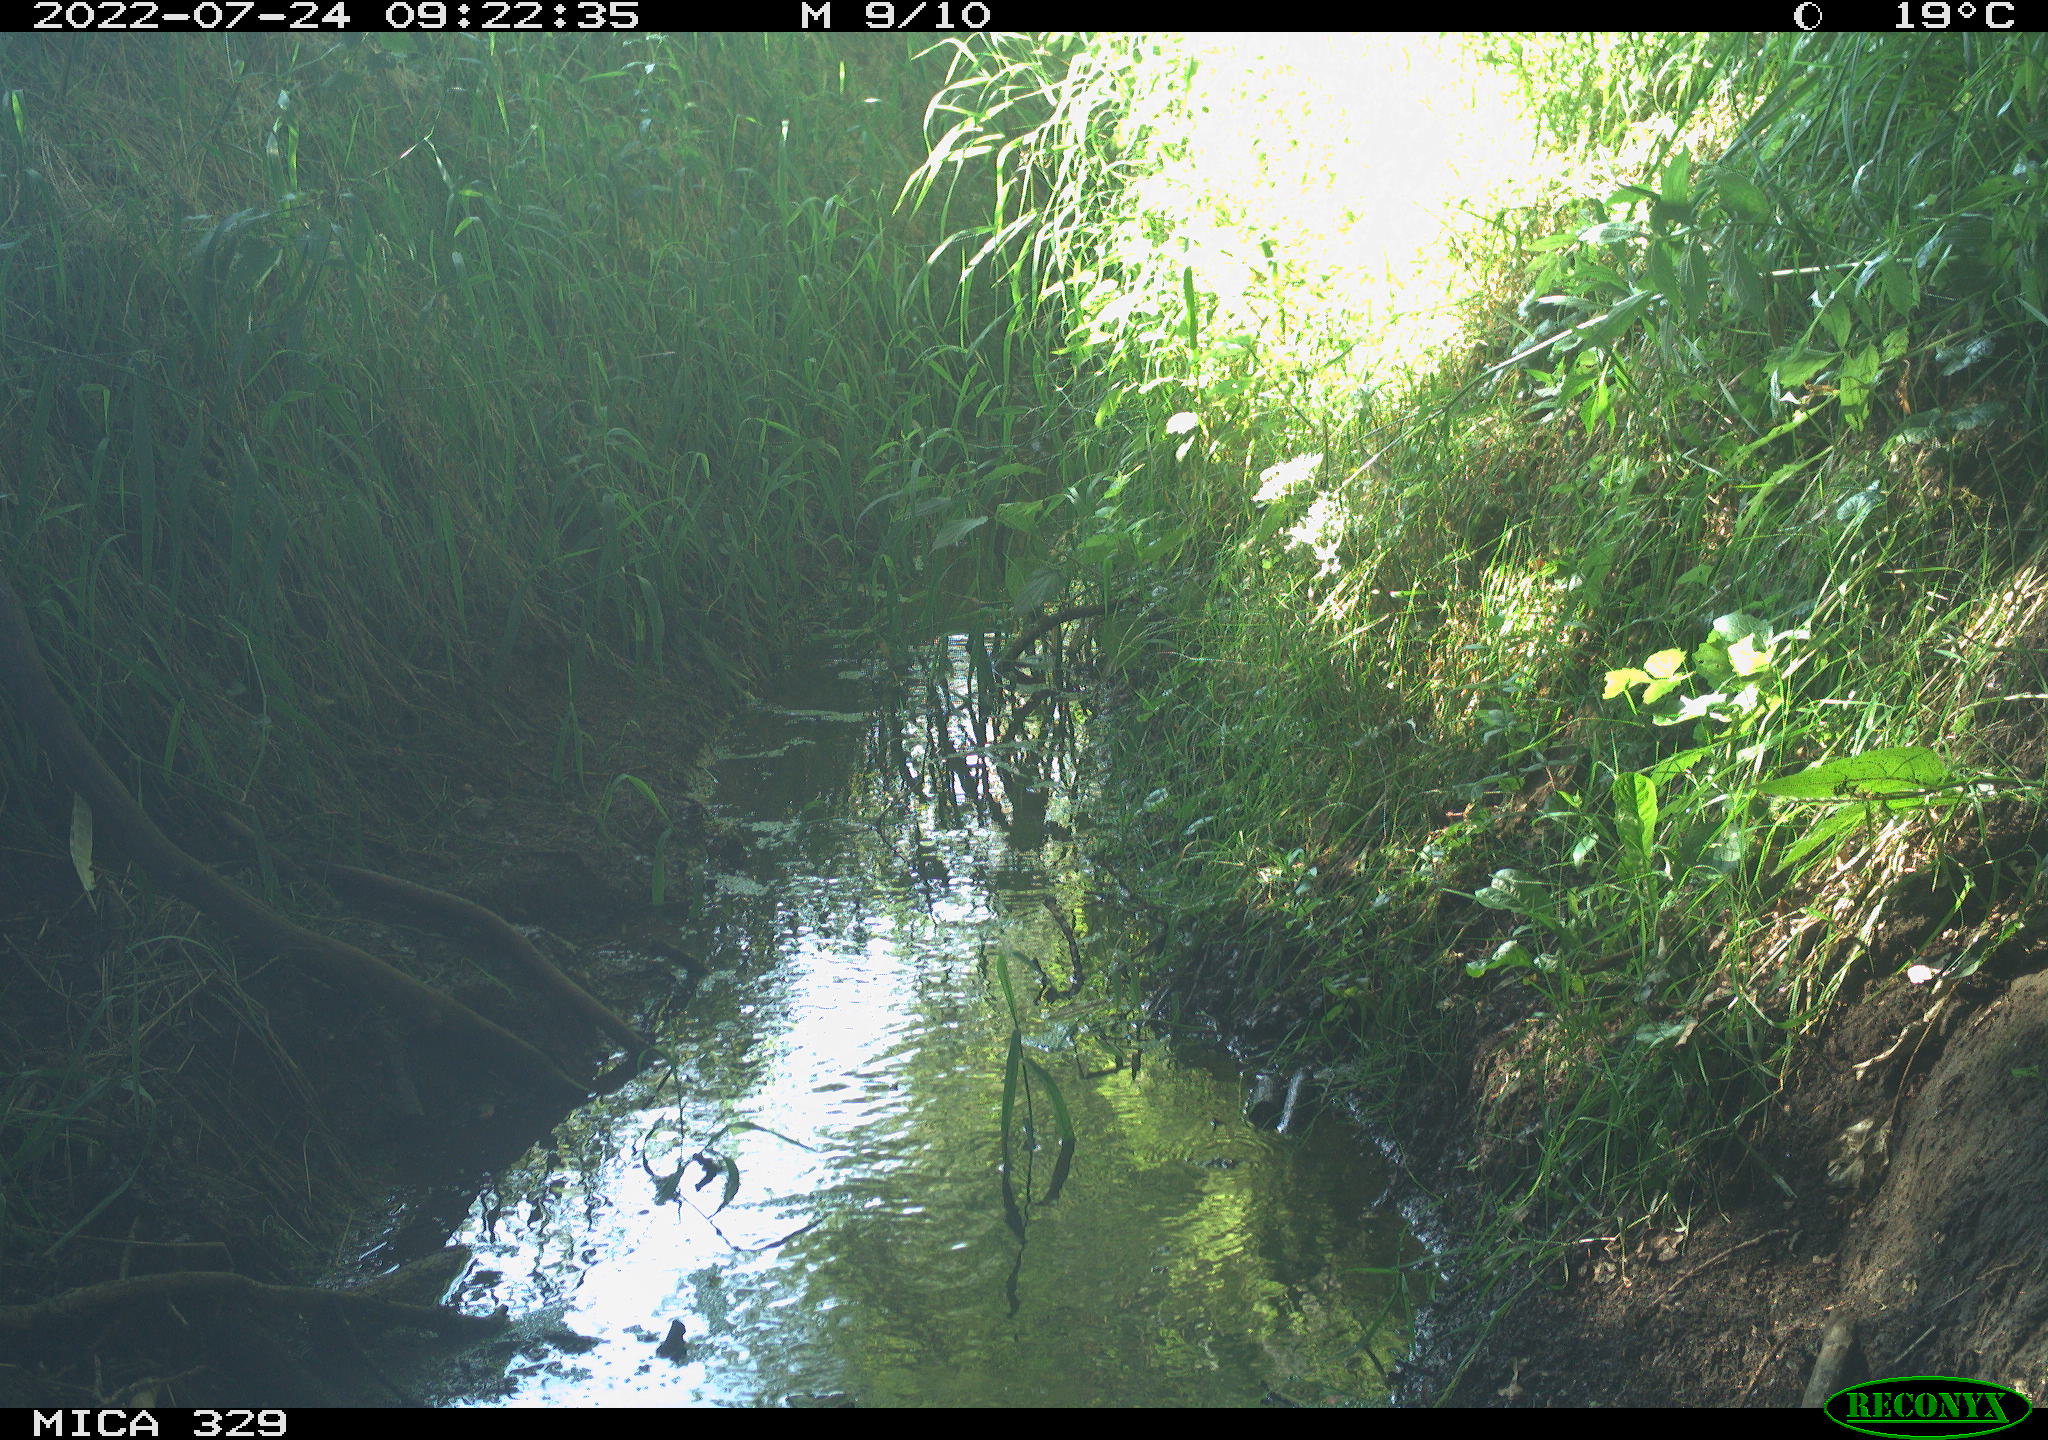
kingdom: Animalia
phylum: Chordata
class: Aves
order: Galliformes
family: Phasianidae
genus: Phasianus
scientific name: Phasianus colchicus
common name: Common pheasant
